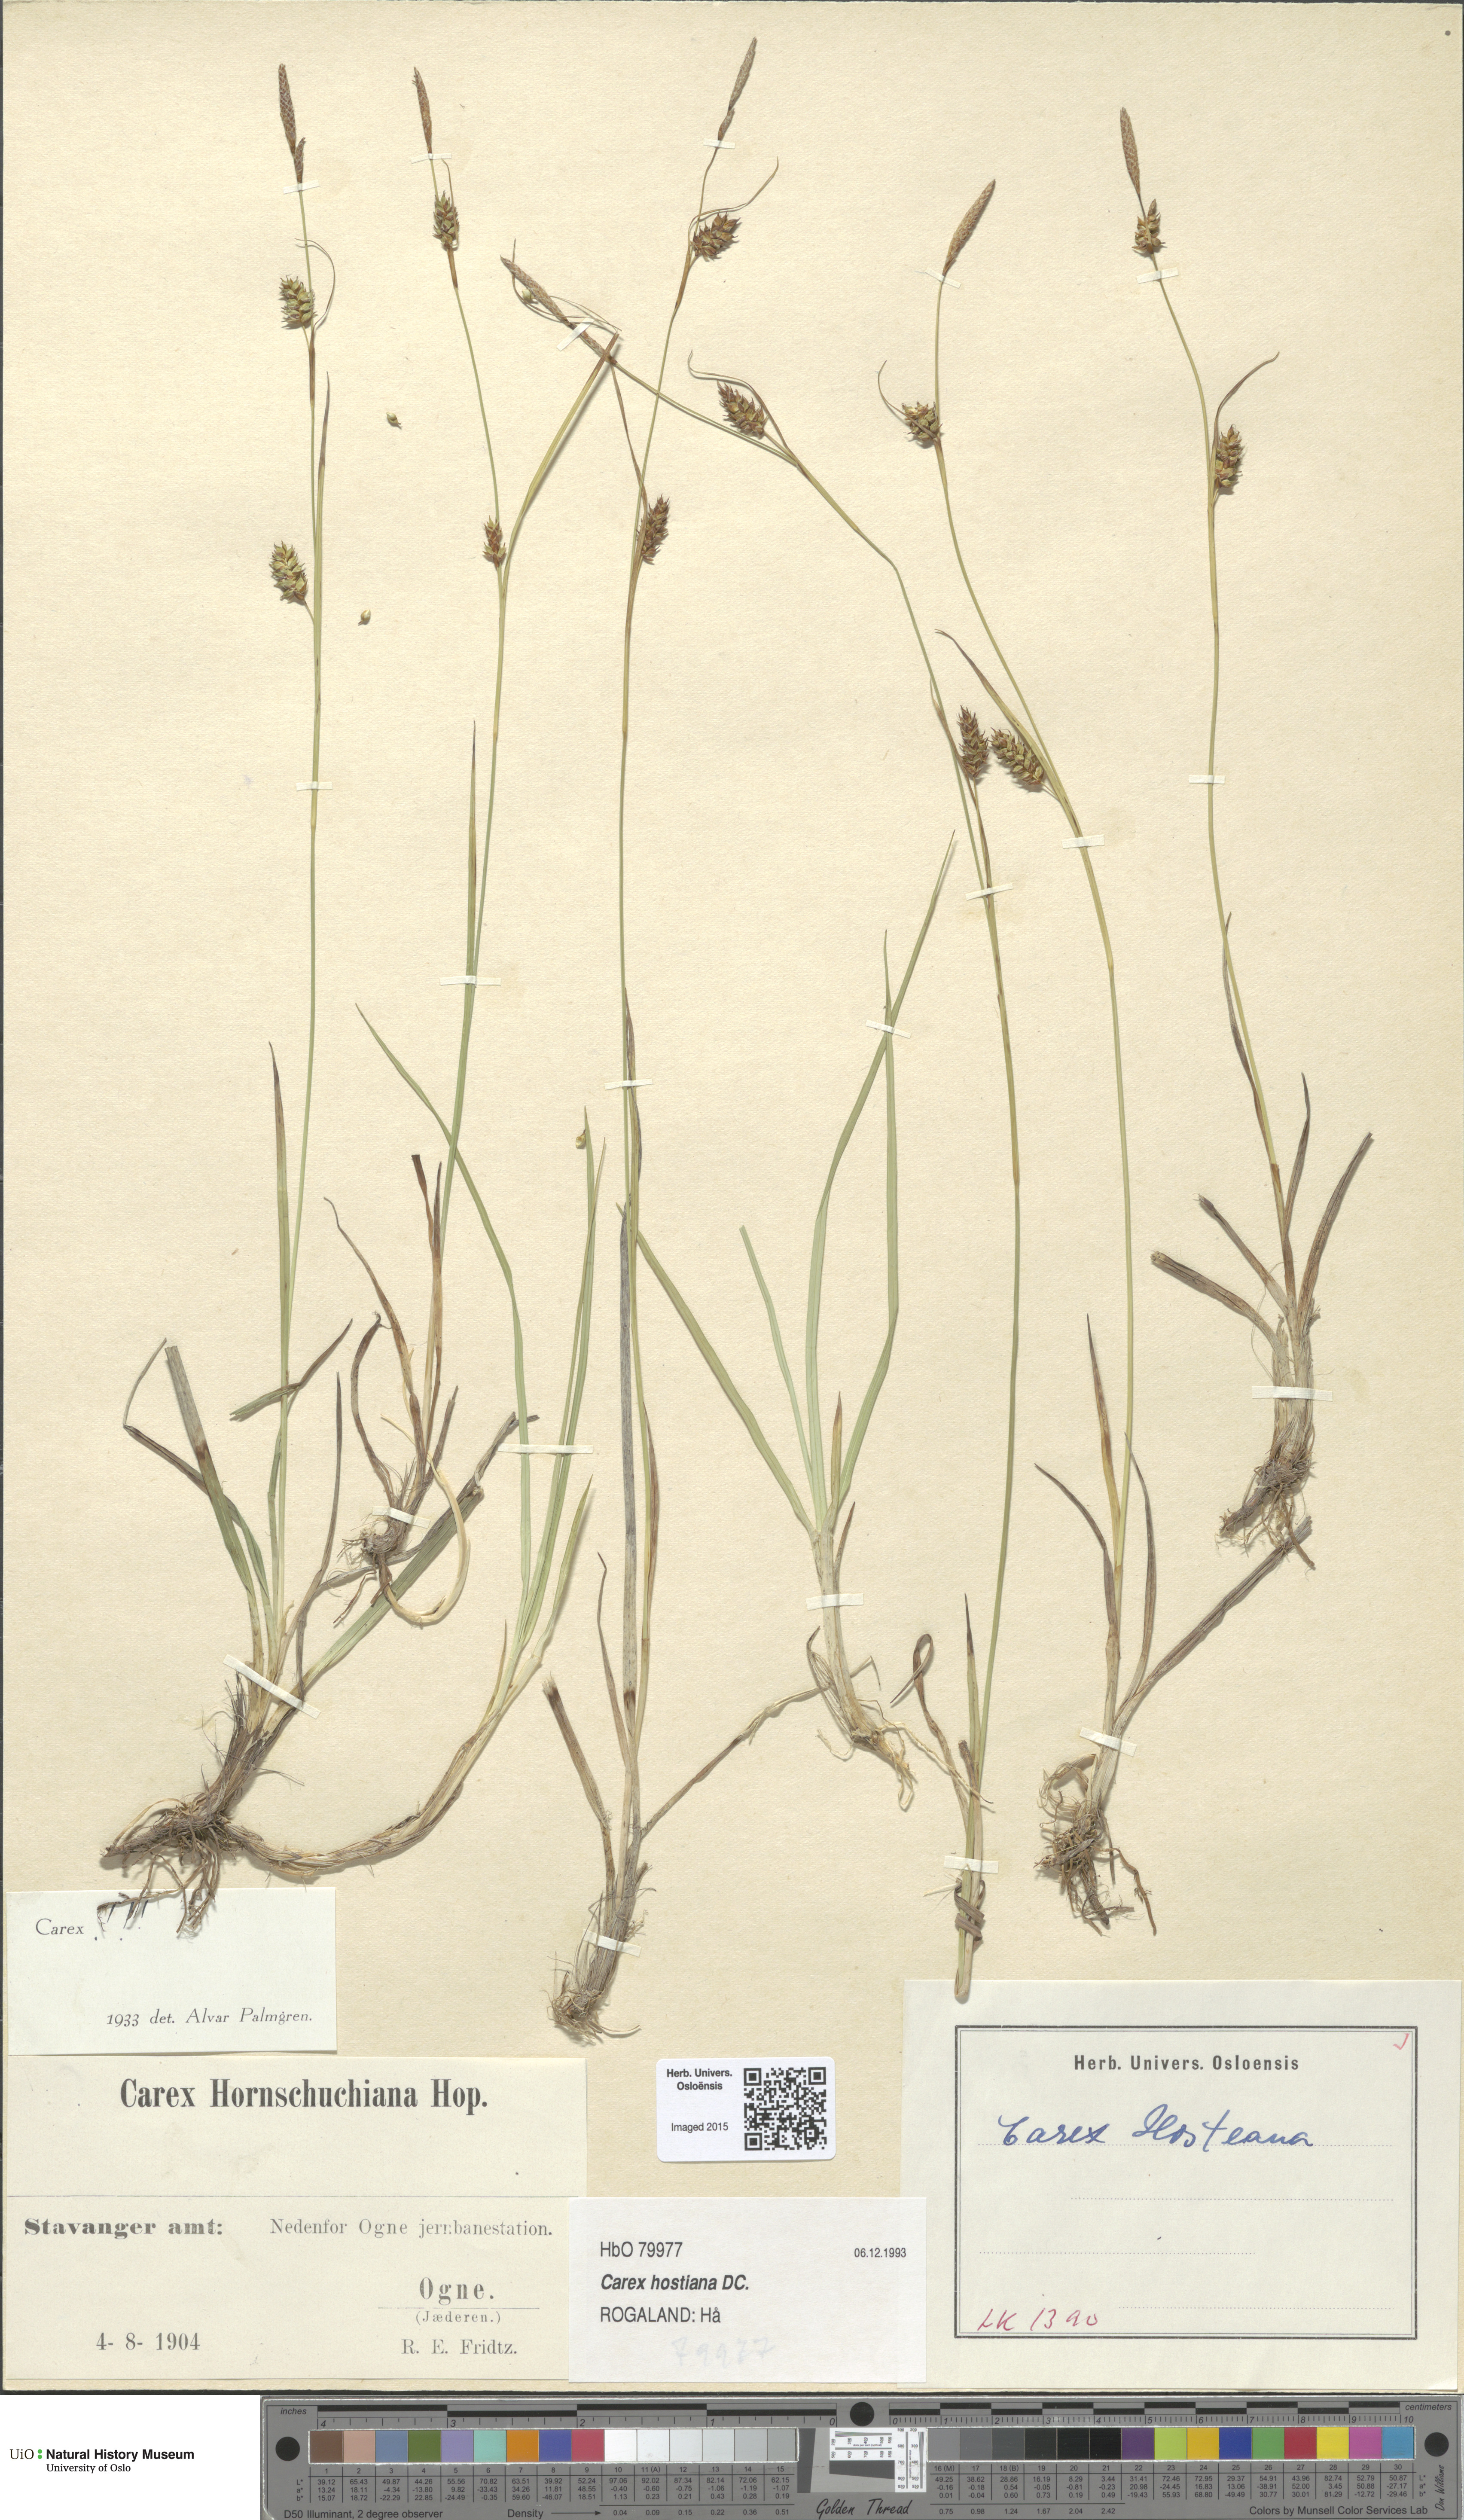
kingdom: Plantae
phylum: Tracheophyta
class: Liliopsida
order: Poales
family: Cyperaceae
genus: Carex
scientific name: Carex hostiana
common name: Tawny sedge
